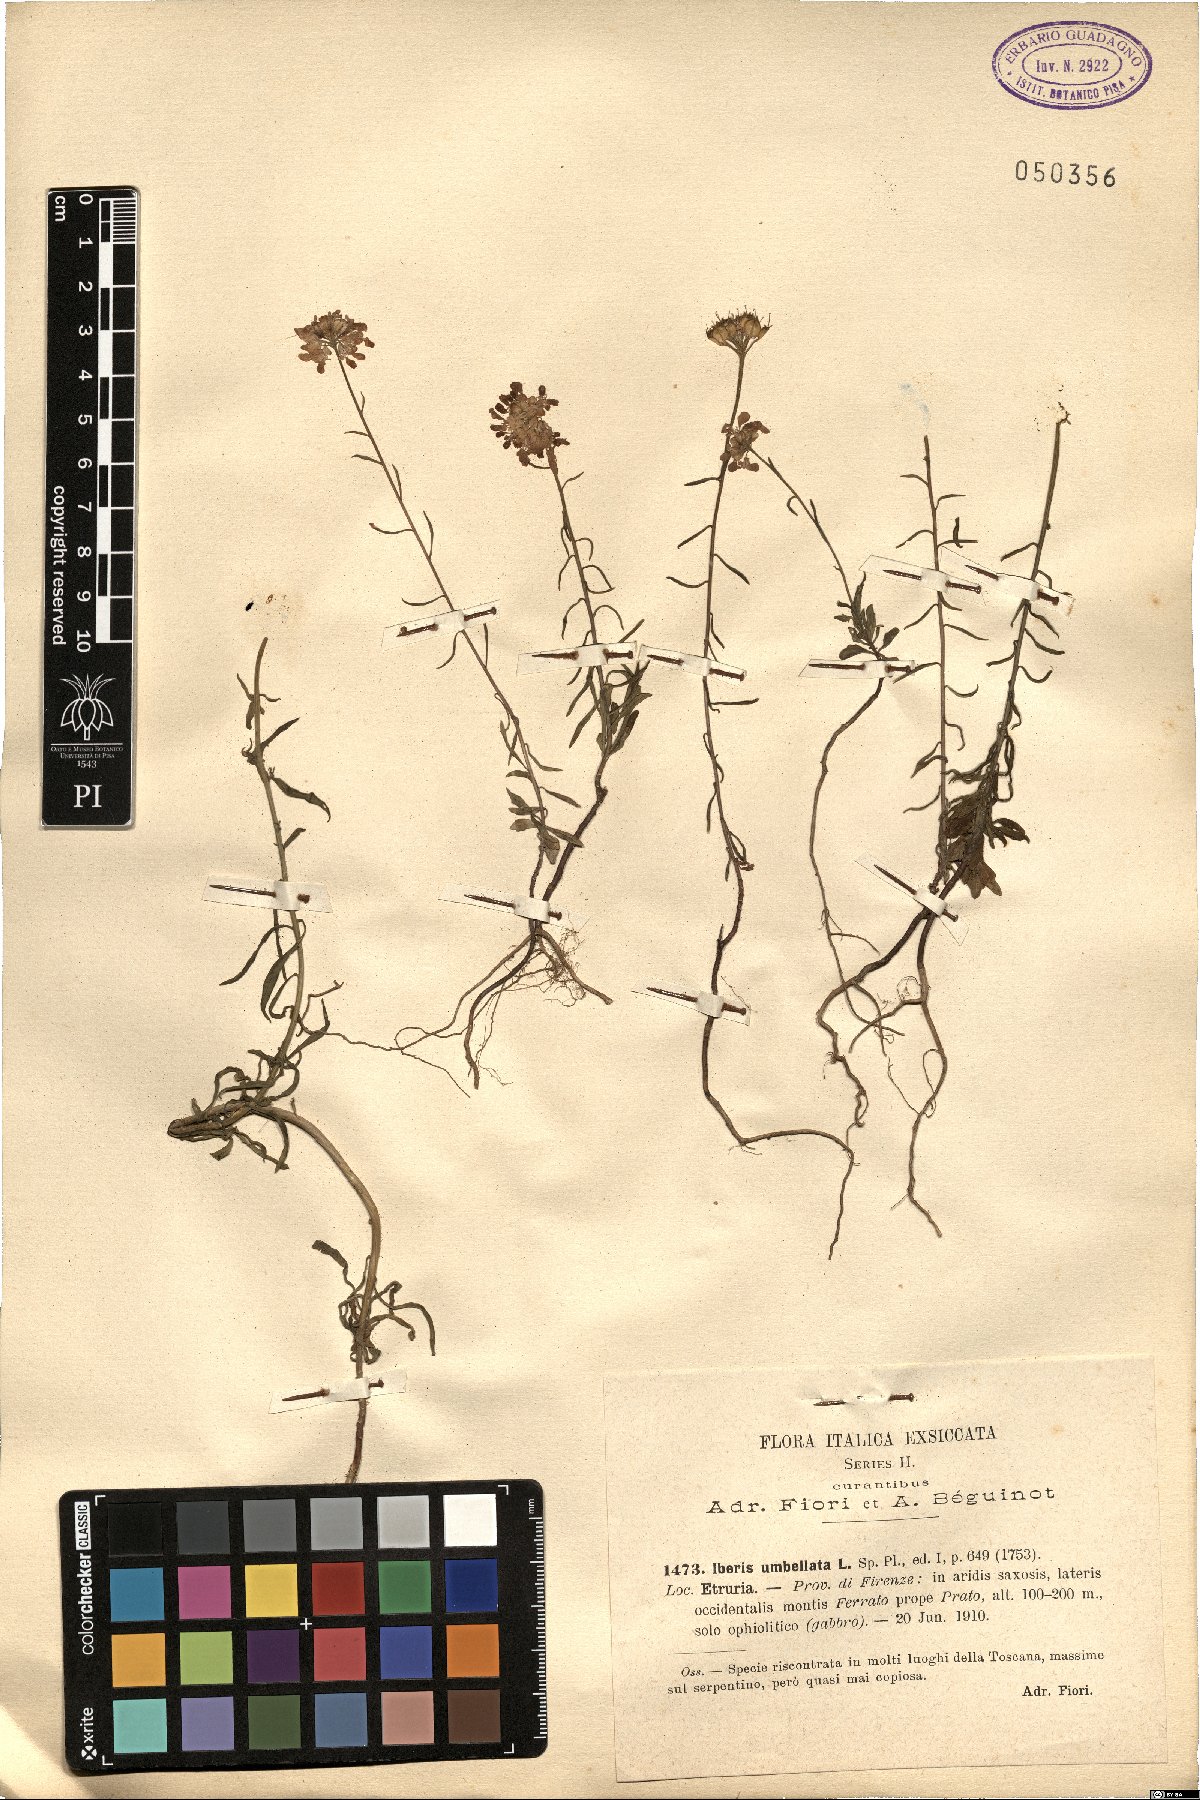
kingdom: Plantae
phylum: Tracheophyta
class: Magnoliopsida
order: Brassicales
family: Brassicaceae
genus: Iberis
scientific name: Iberis umbellata
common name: Globe candytuft
